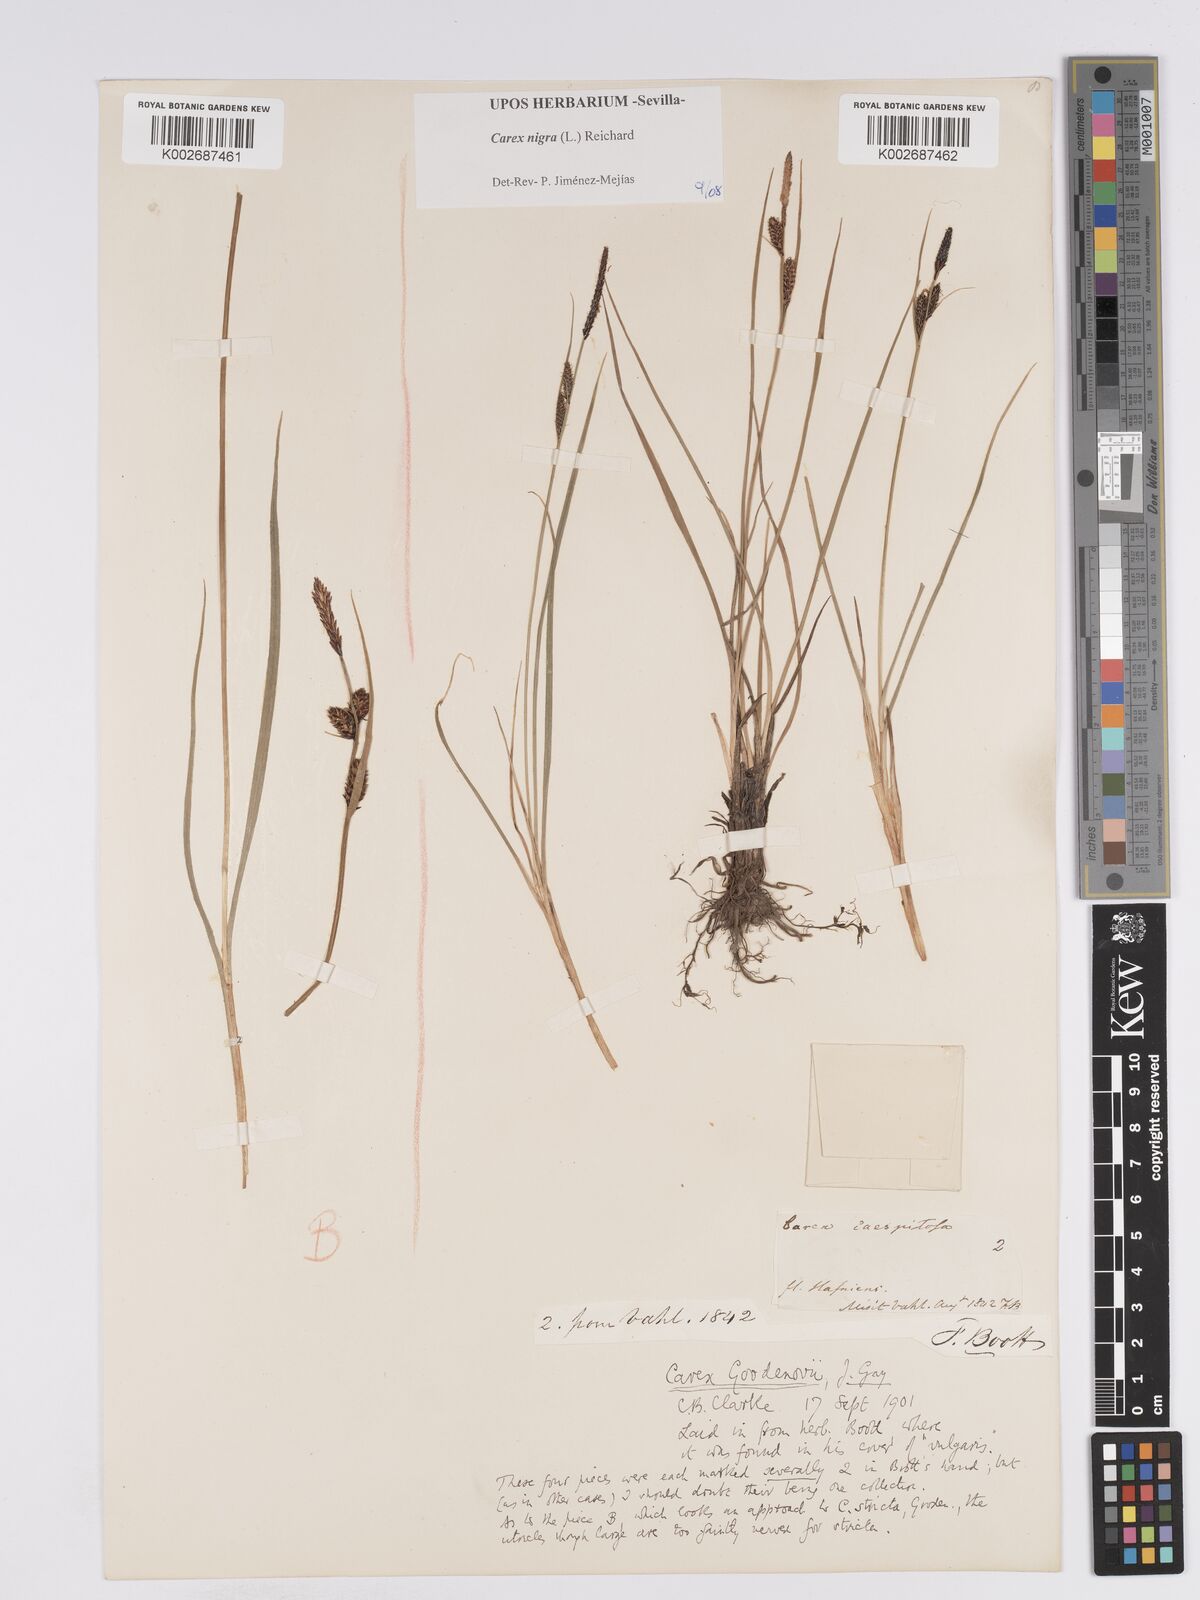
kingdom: Plantae
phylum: Tracheophyta
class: Liliopsida
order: Poales
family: Cyperaceae
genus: Carex
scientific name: Carex nigra
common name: Common sedge
